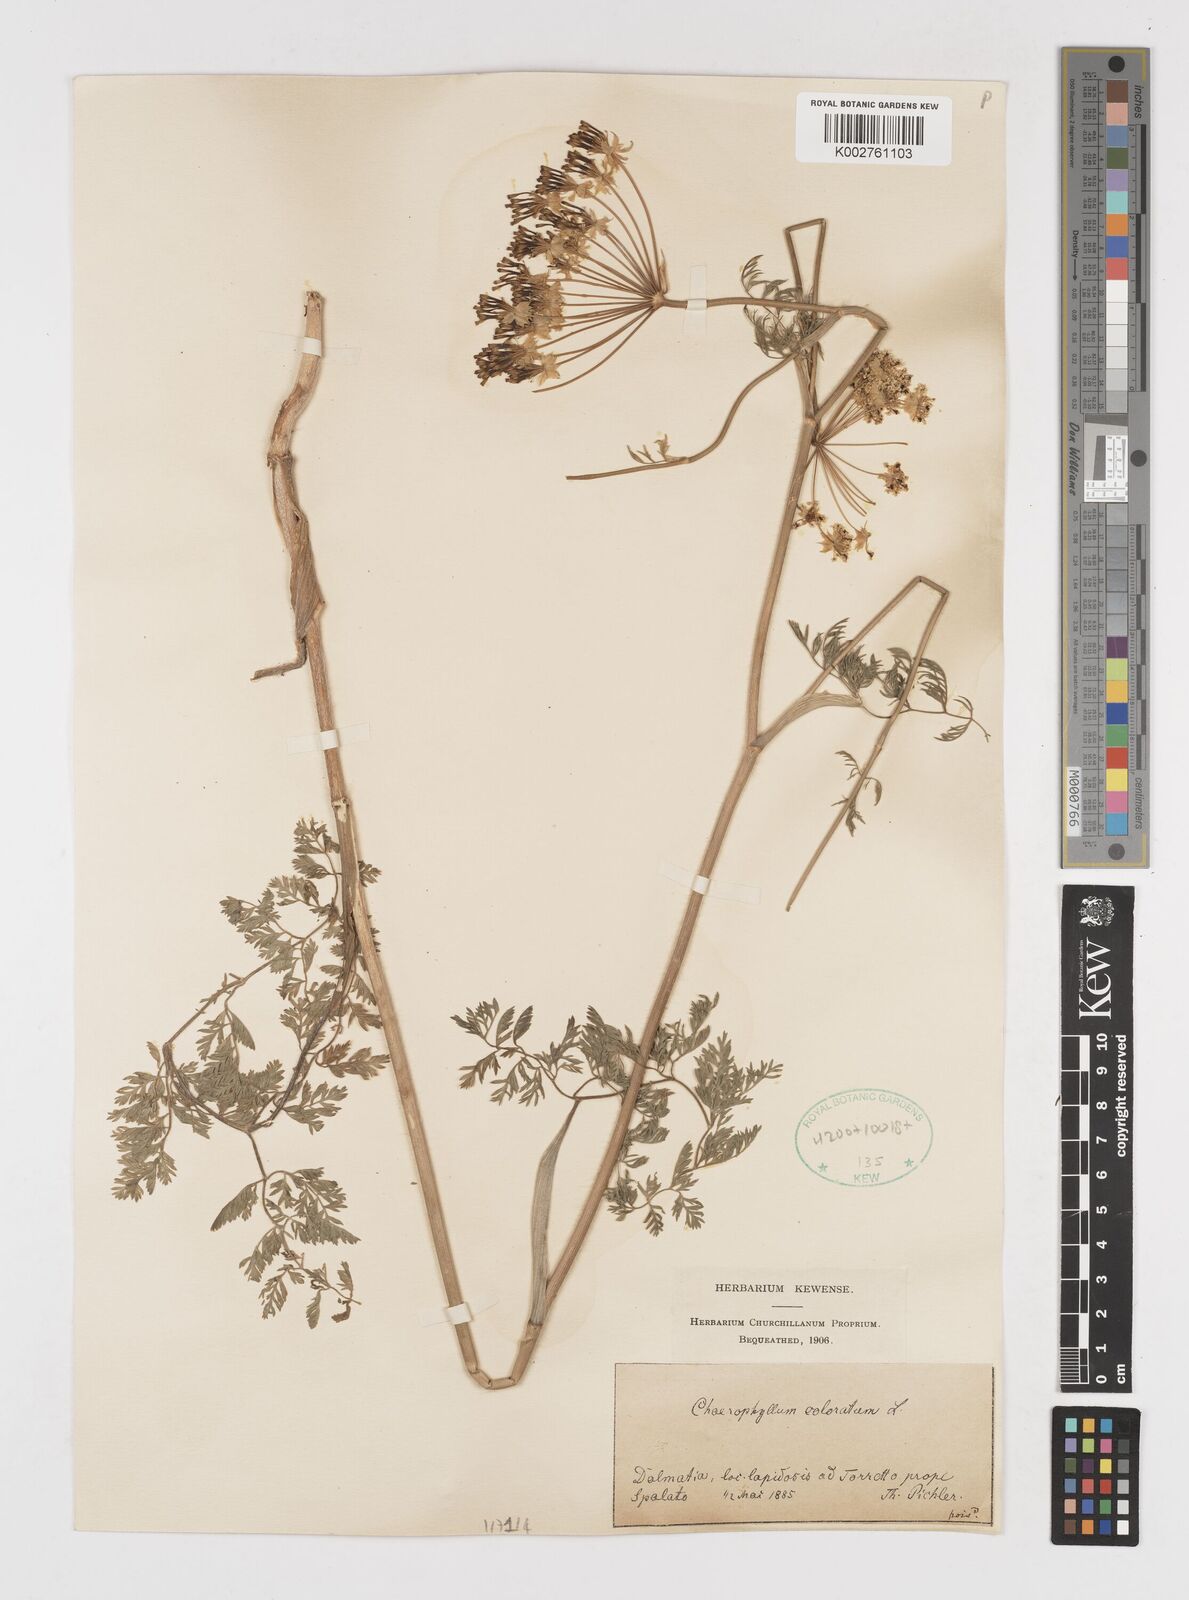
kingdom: Plantae
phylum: Tracheophyta
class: Magnoliopsida
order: Apiales
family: Apiaceae
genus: Chaerophyllum
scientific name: Chaerophyllum coloratum
